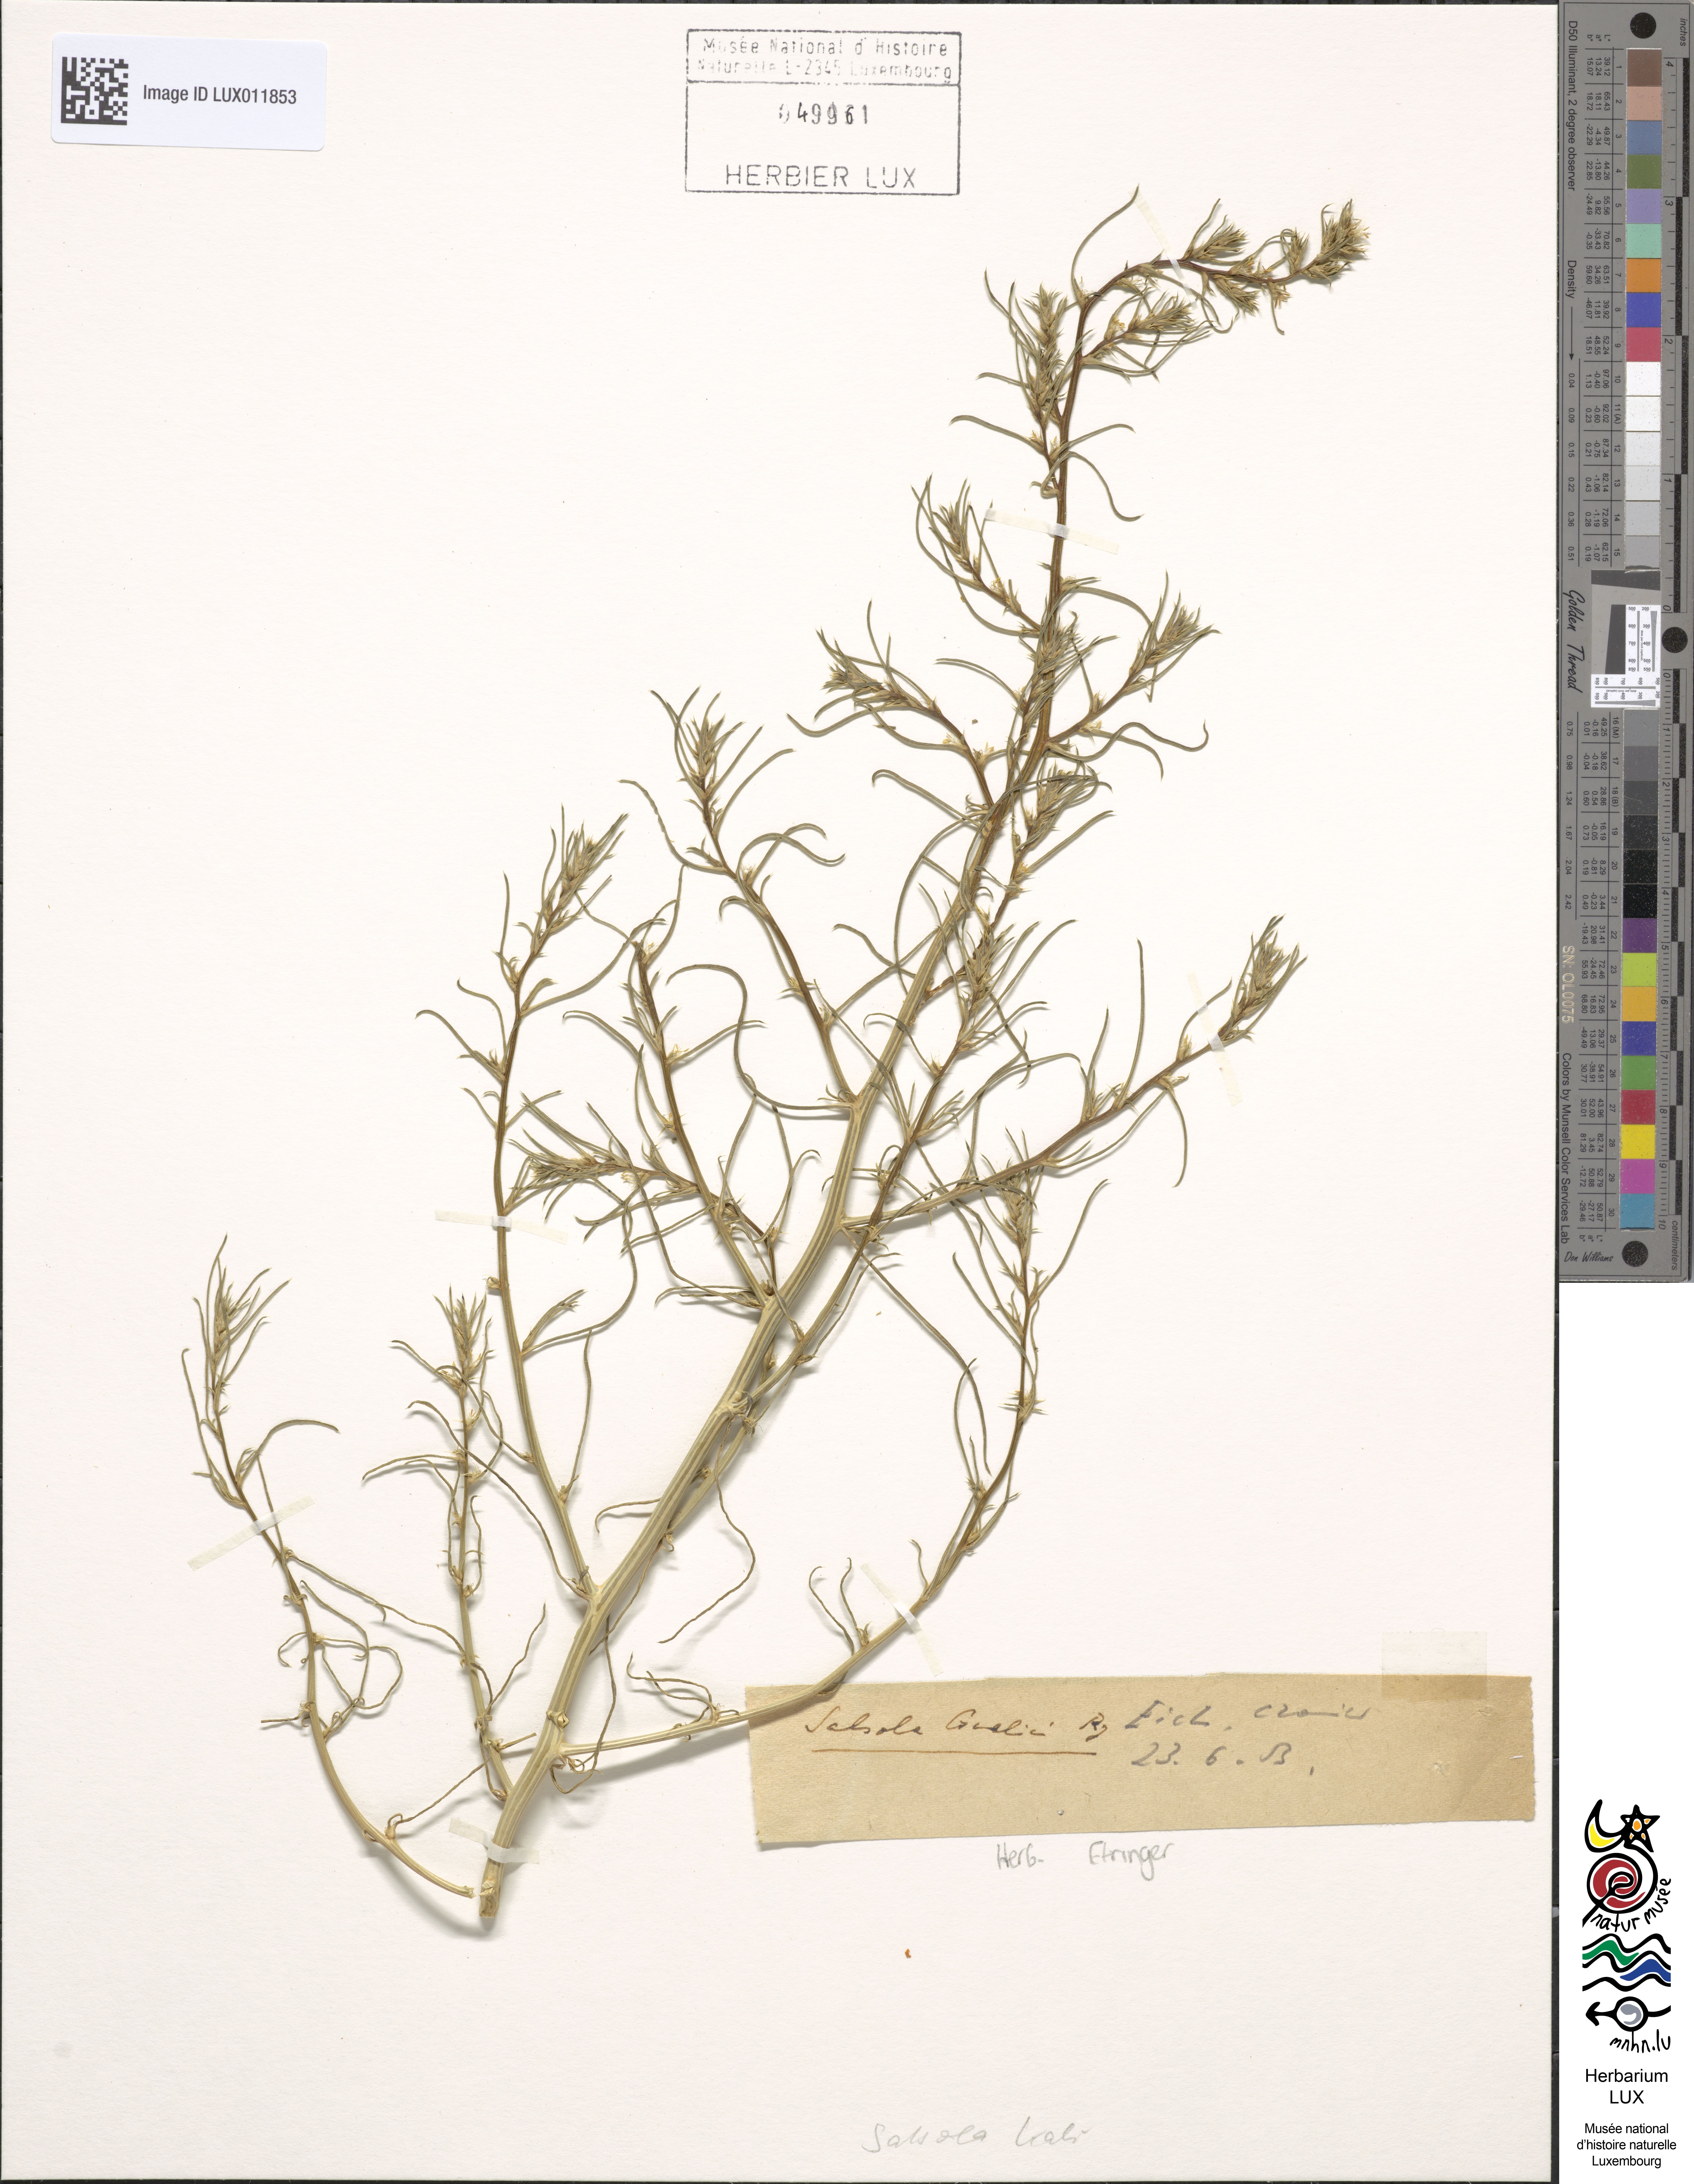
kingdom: Plantae
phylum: Tracheophyta
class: Magnoliopsida
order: Caryophyllales
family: Amaranthaceae
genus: Salsola
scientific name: Salsola kali
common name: Saltwort
